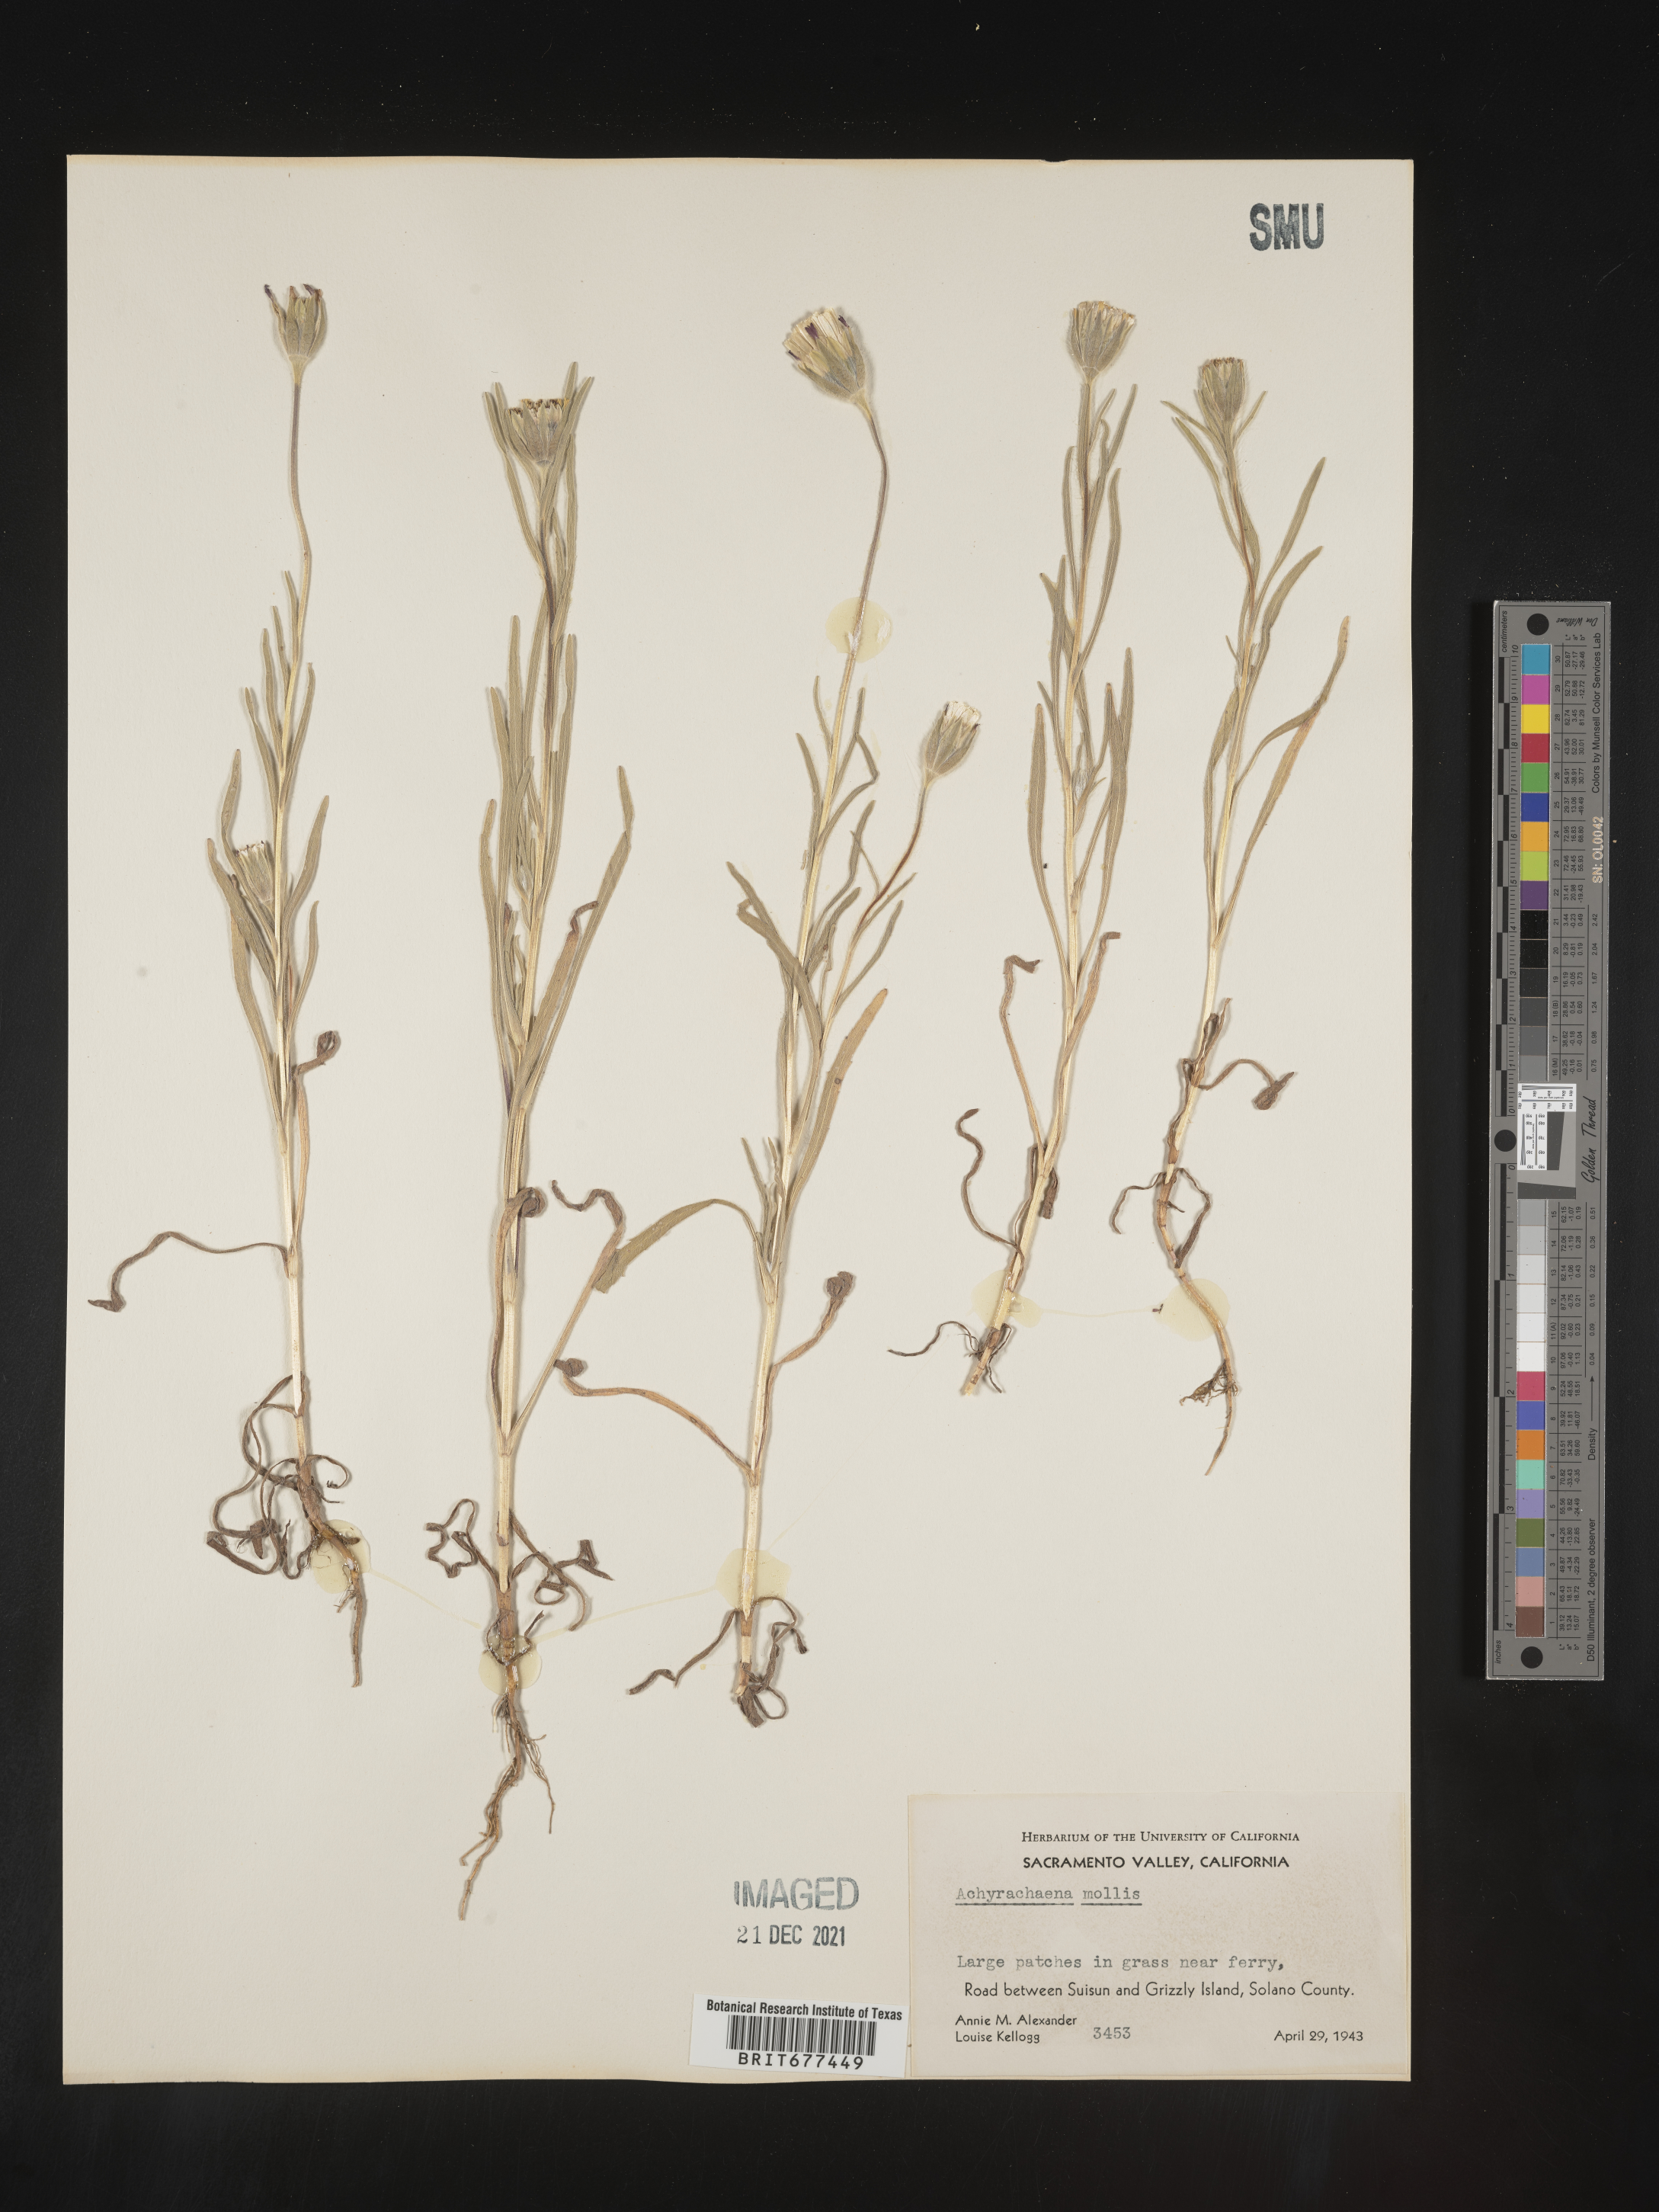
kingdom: Plantae
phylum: Tracheophyta
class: Magnoliopsida
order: Asterales
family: Asteraceae
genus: Achyrachaena
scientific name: Achyrachaena mollis
